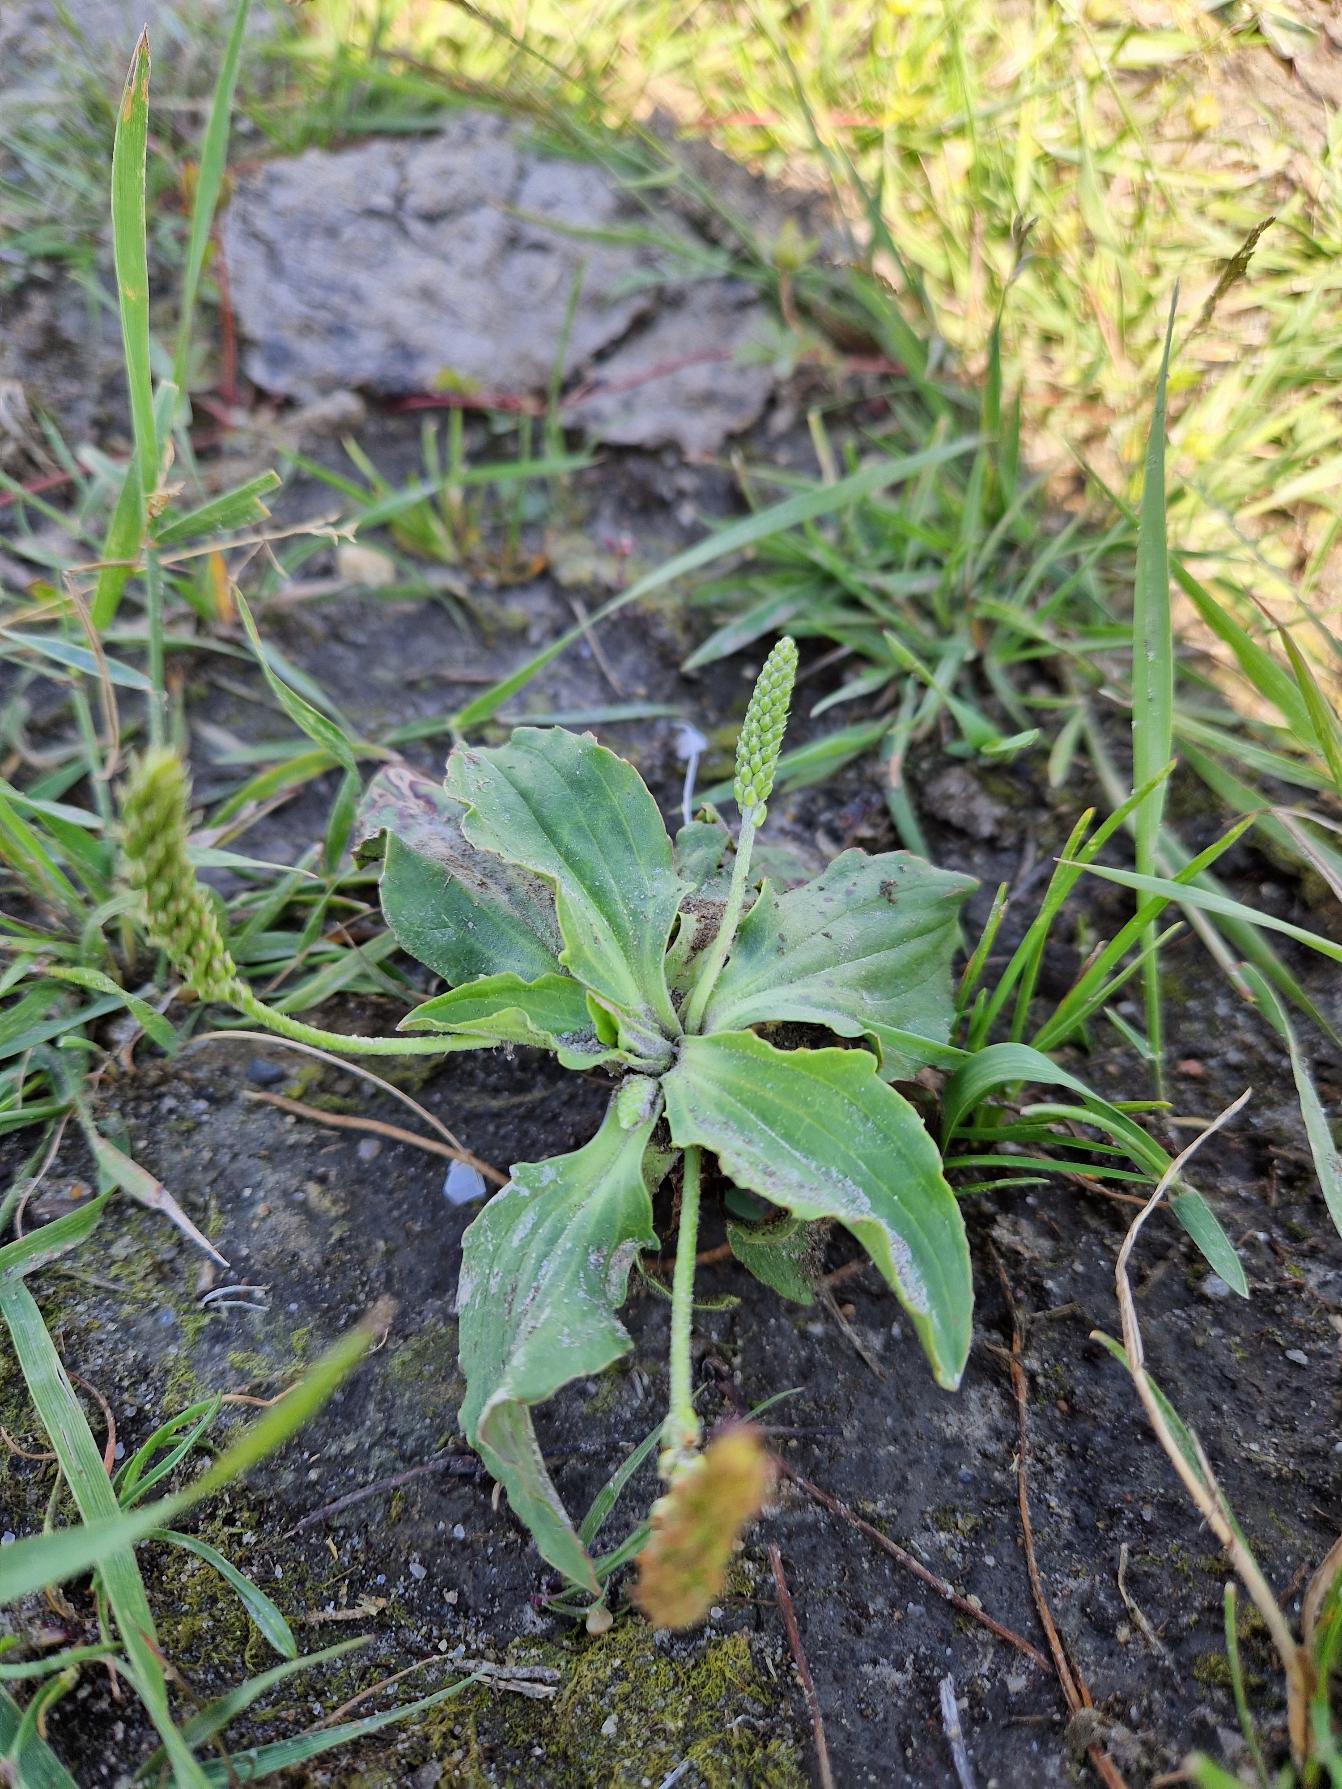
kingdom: Plantae
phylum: Tracheophyta
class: Magnoliopsida
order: Lamiales
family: Plantaginaceae
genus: Plantago
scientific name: Plantago major
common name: Glat vejbred
